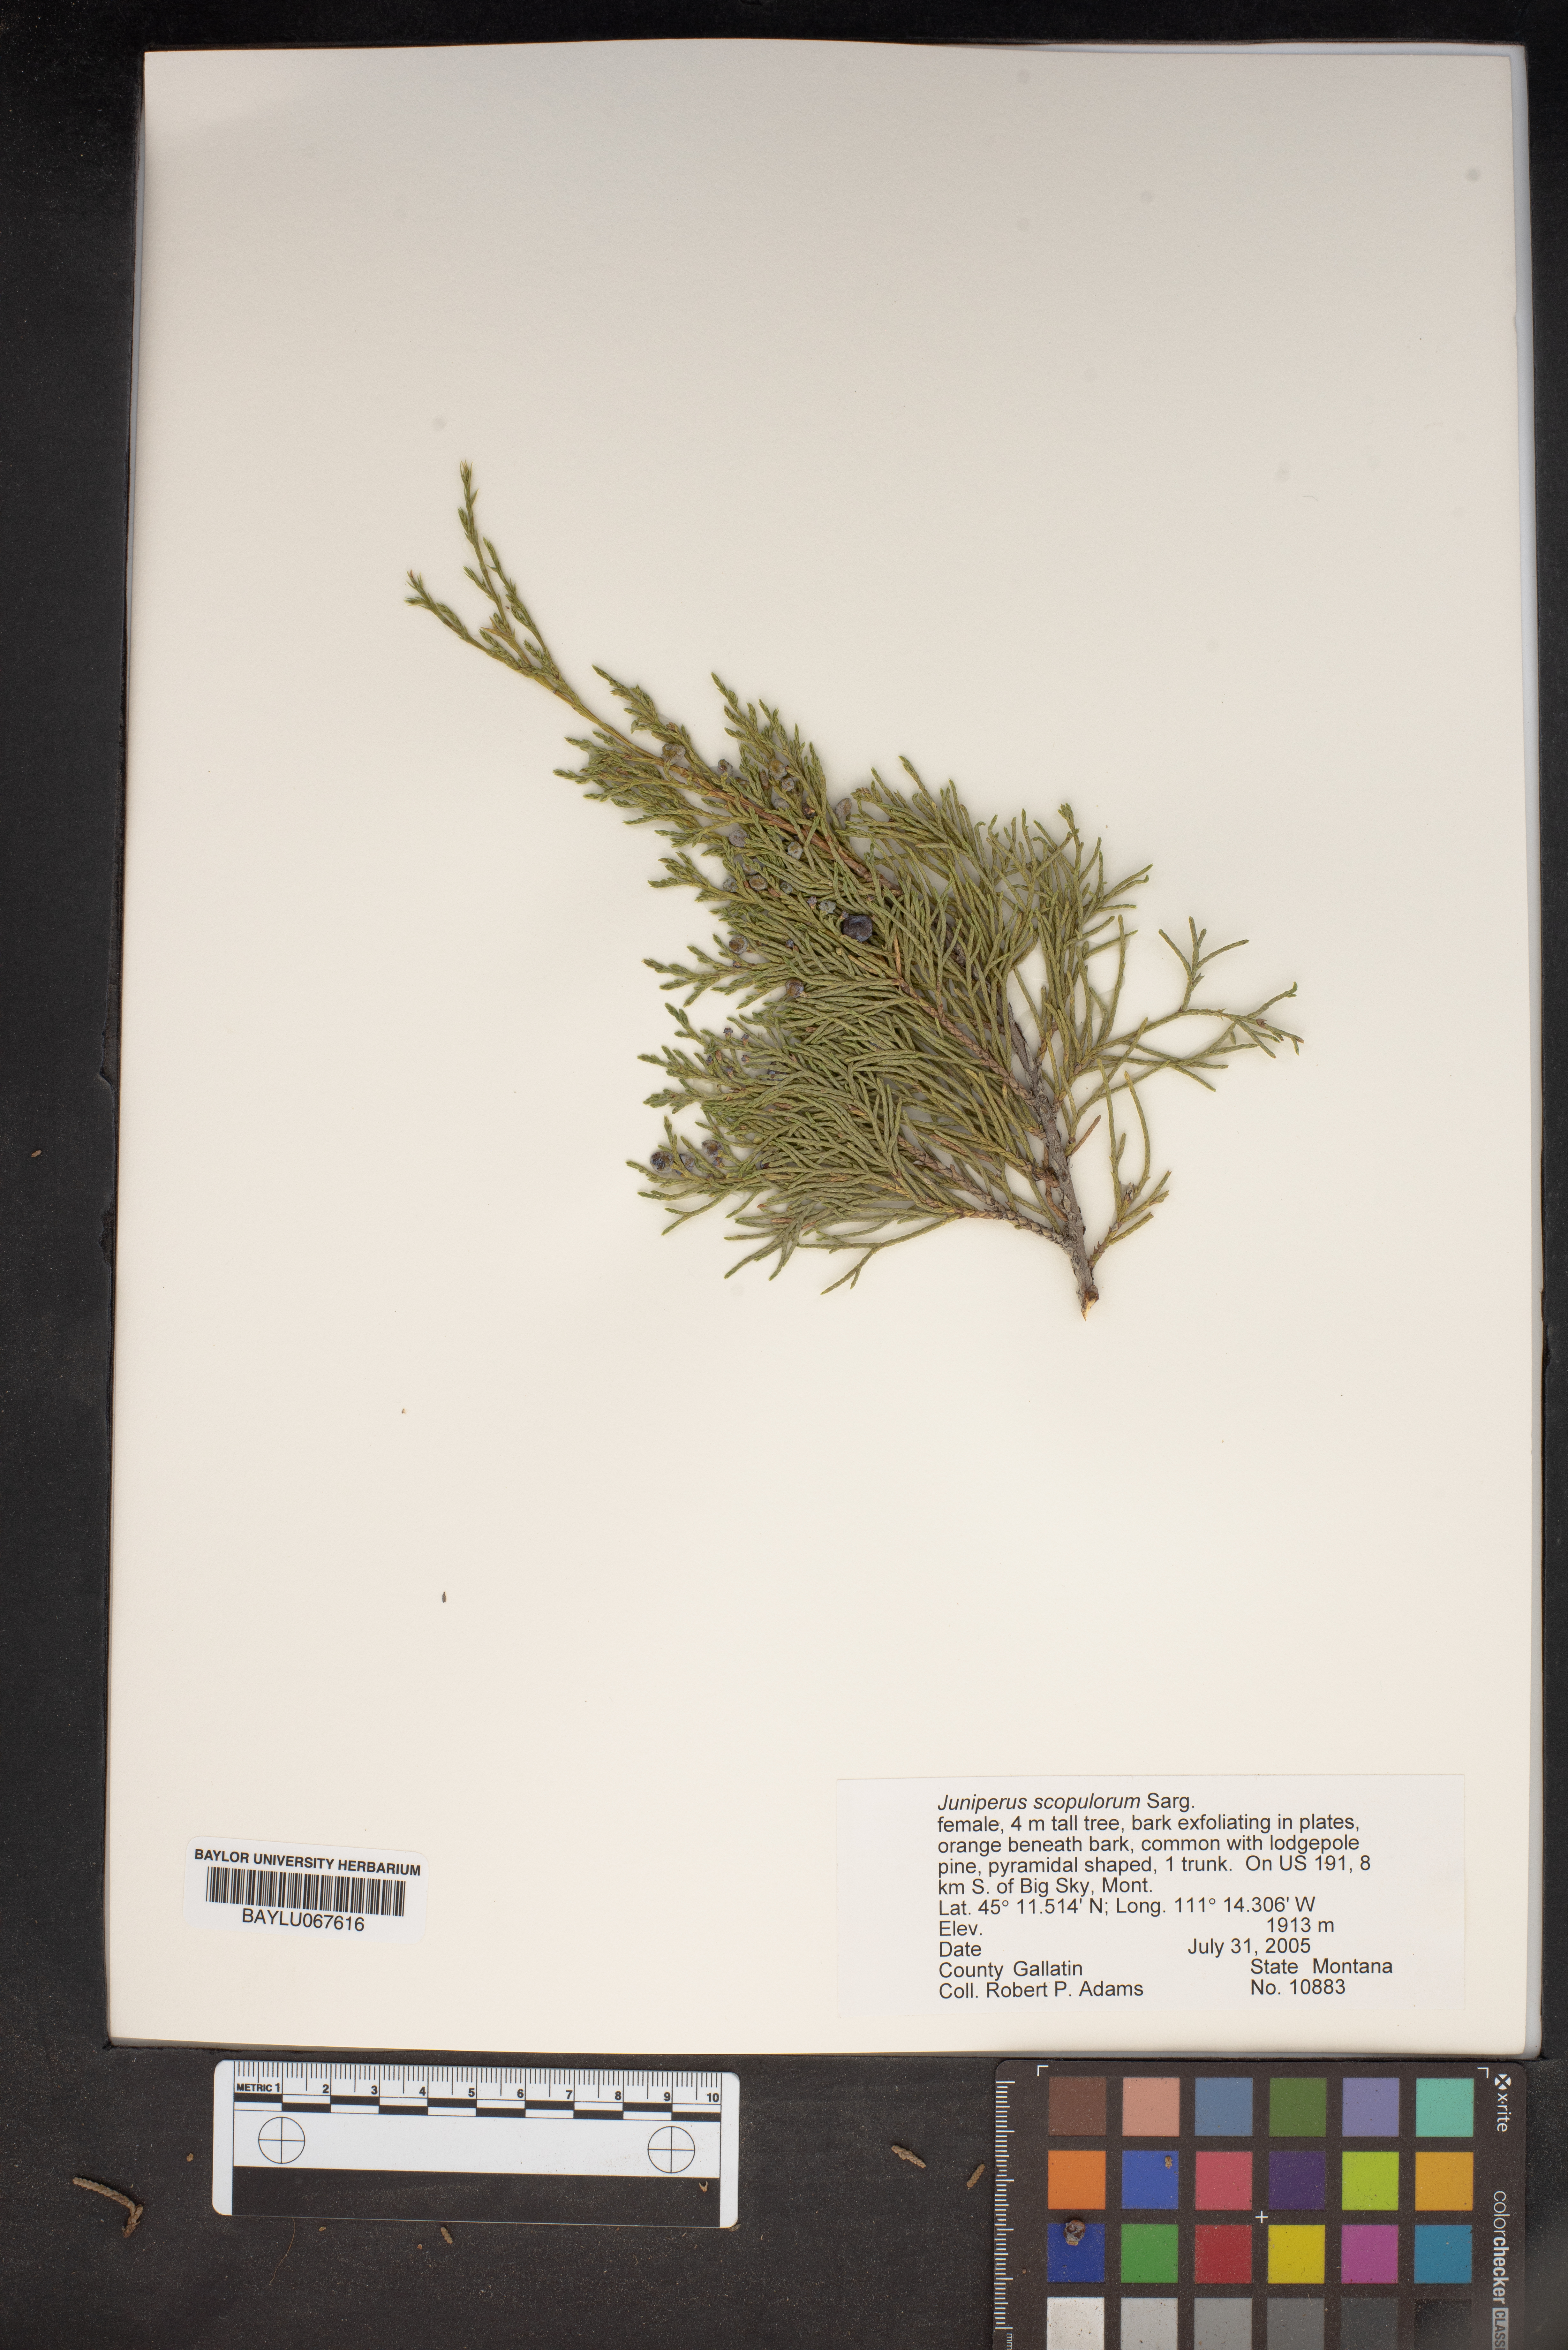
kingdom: Plantae
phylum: Tracheophyta
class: Pinopsida
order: Pinales
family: Cupressaceae
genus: Juniperus
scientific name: Juniperus scopulorum
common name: Rocky mountain juniper
